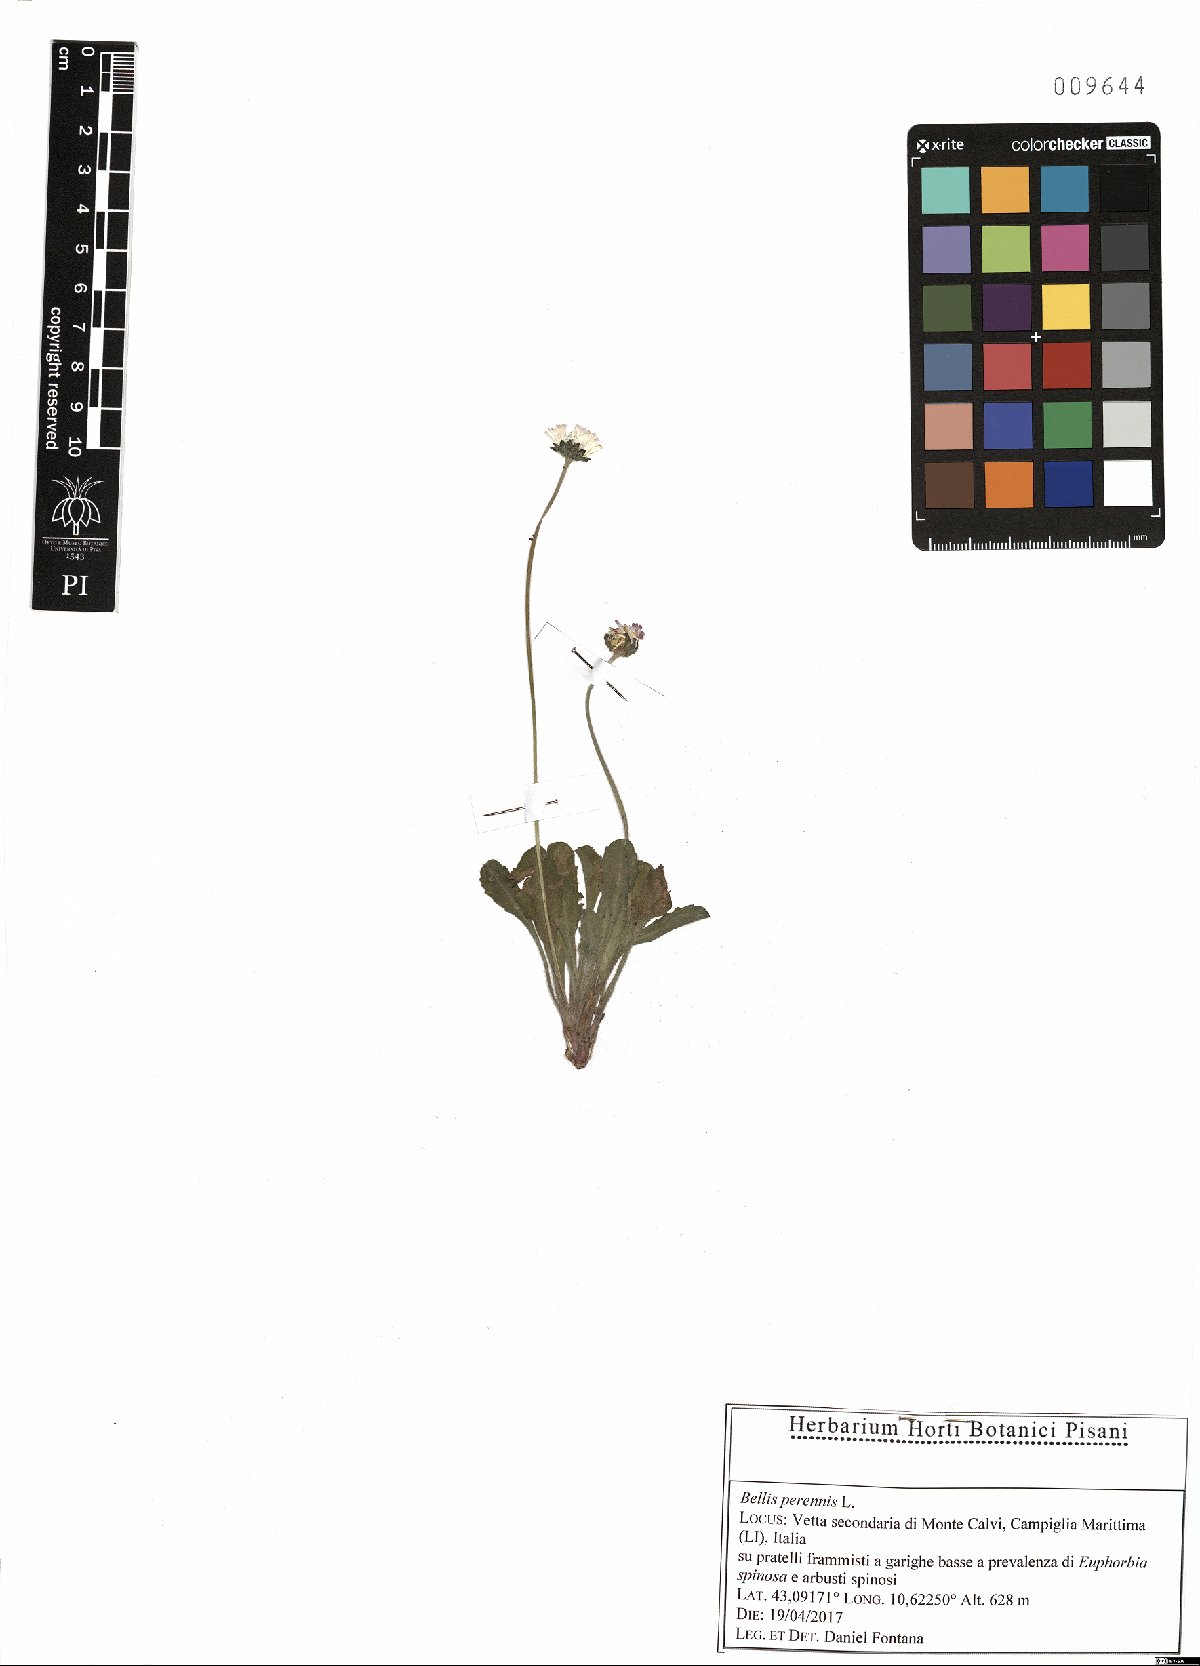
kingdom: Plantae
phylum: Tracheophyta
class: Magnoliopsida
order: Asterales
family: Asteraceae
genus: Bellis
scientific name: Bellis perennis
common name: Lawndaisy
